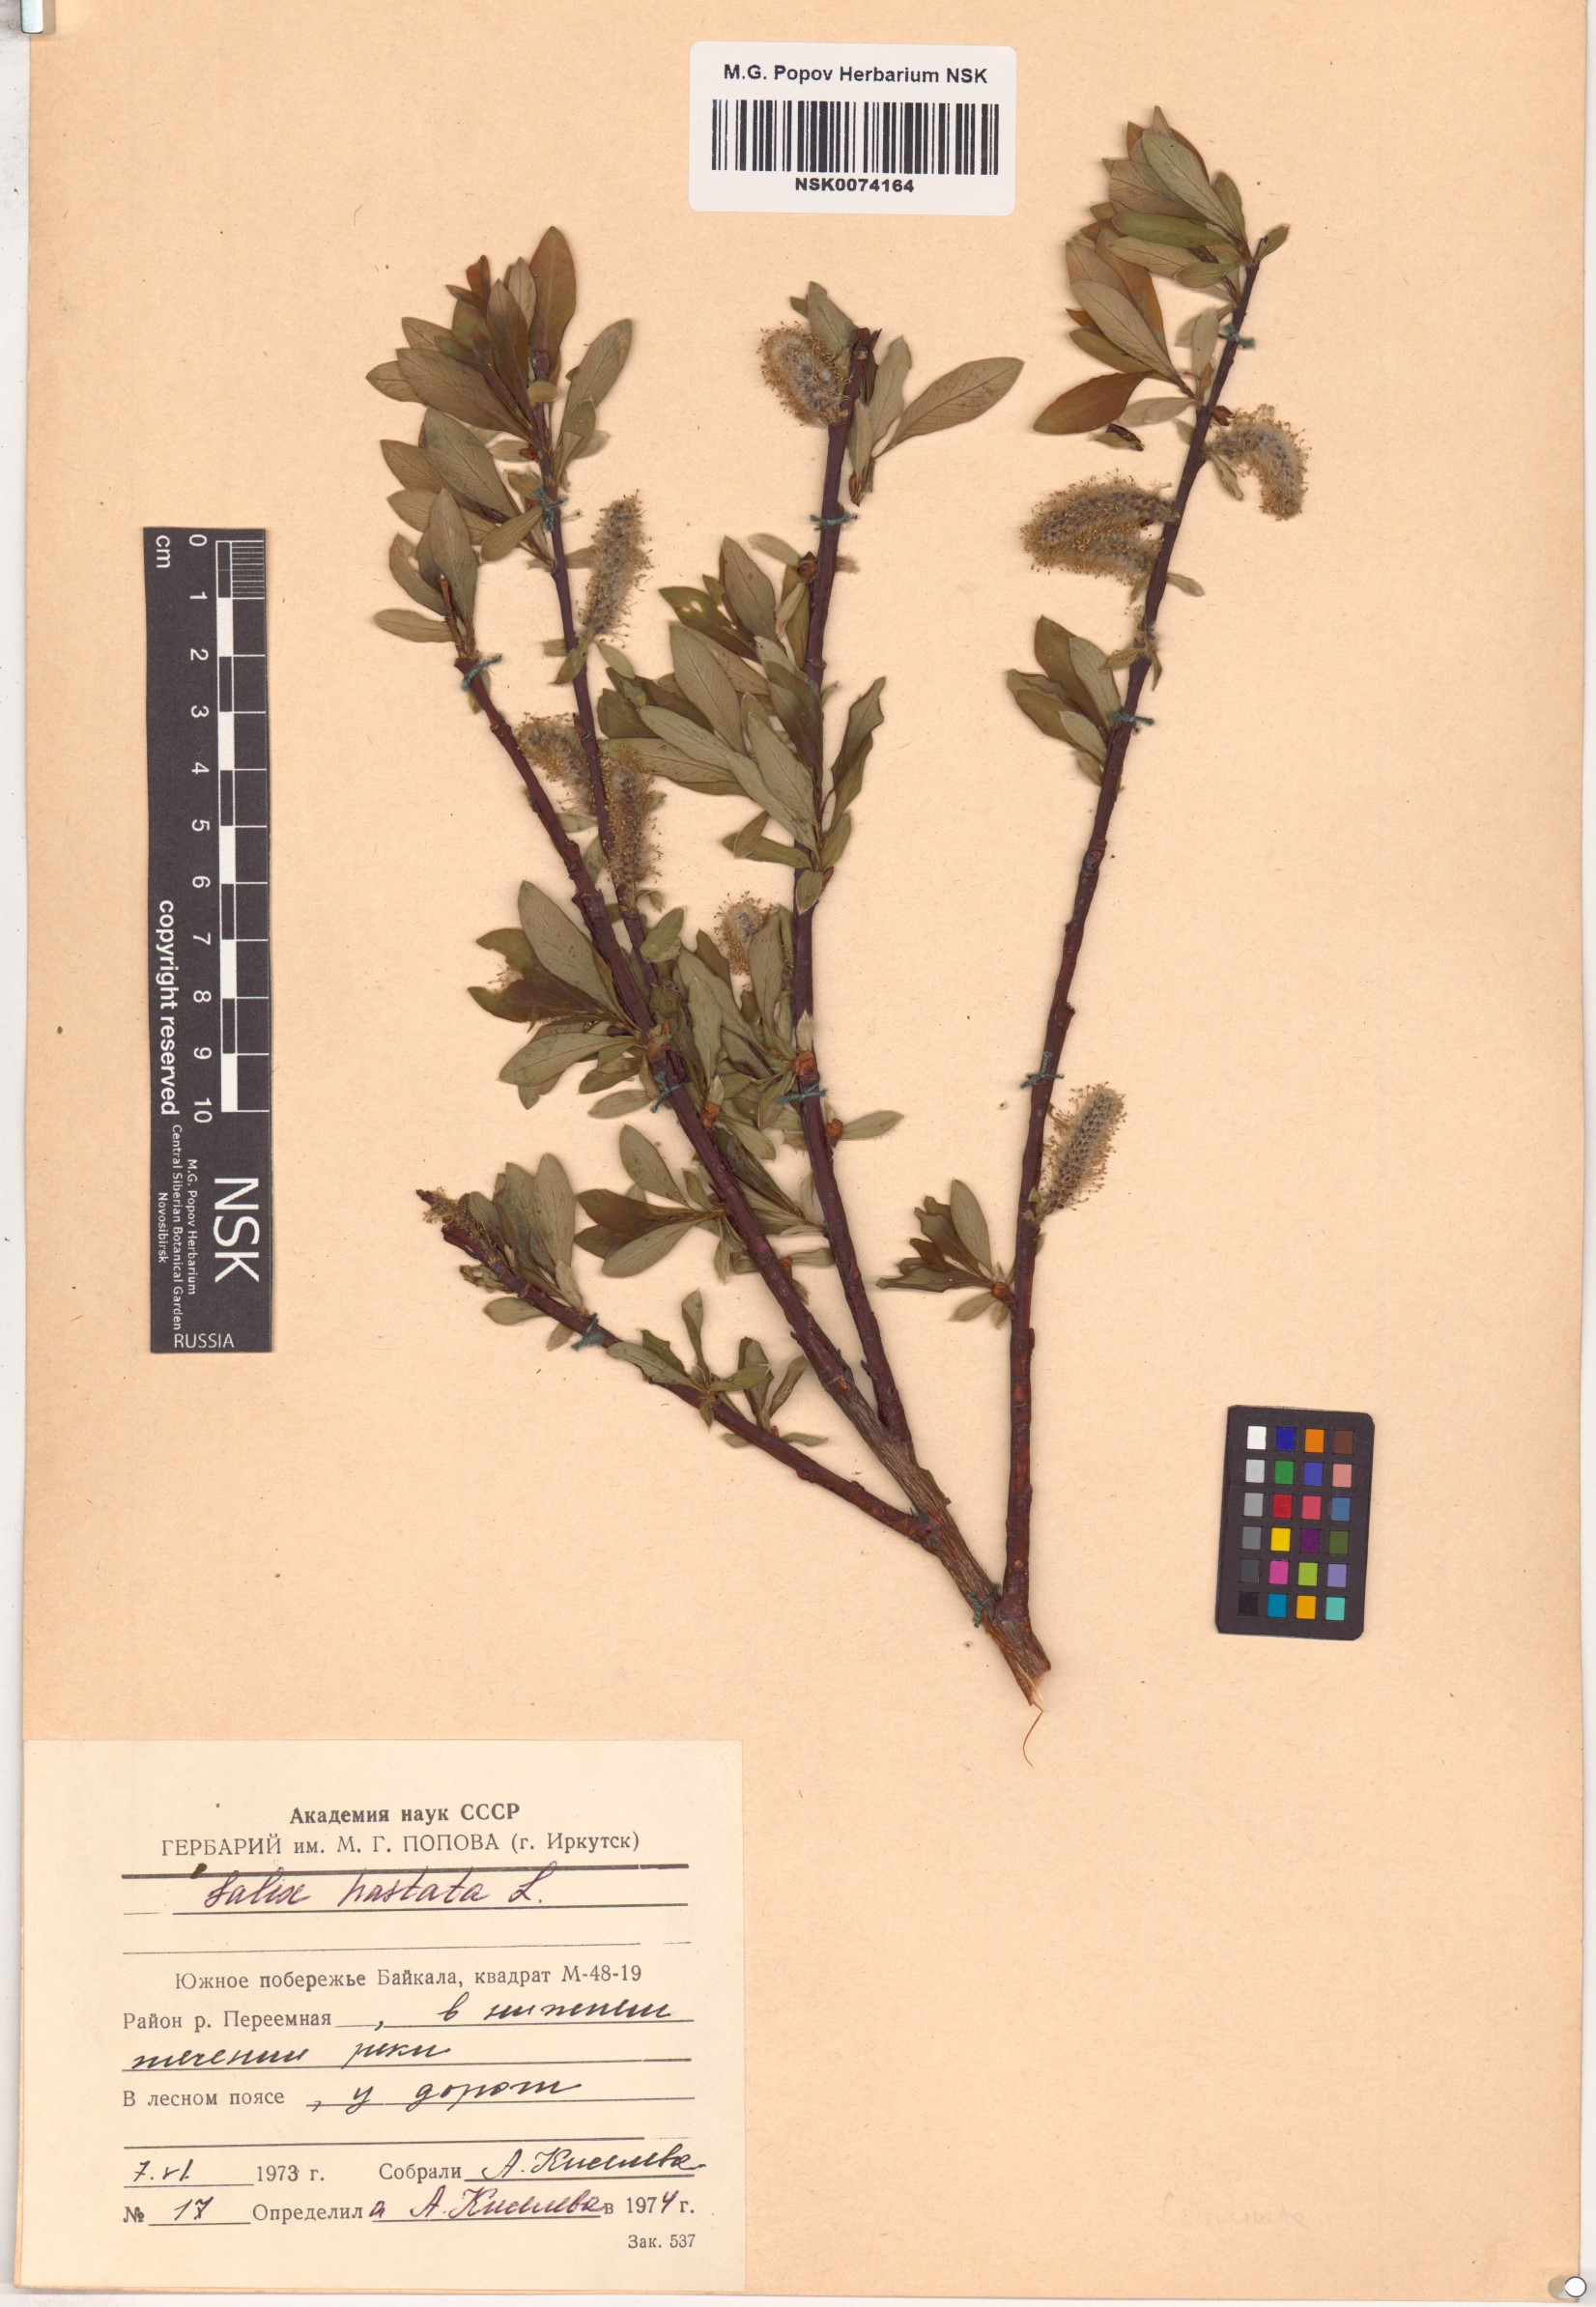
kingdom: Plantae
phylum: Tracheophyta
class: Magnoliopsida
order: Malpighiales
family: Salicaceae
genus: Salix
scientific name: Salix hastata
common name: Halberd willow
